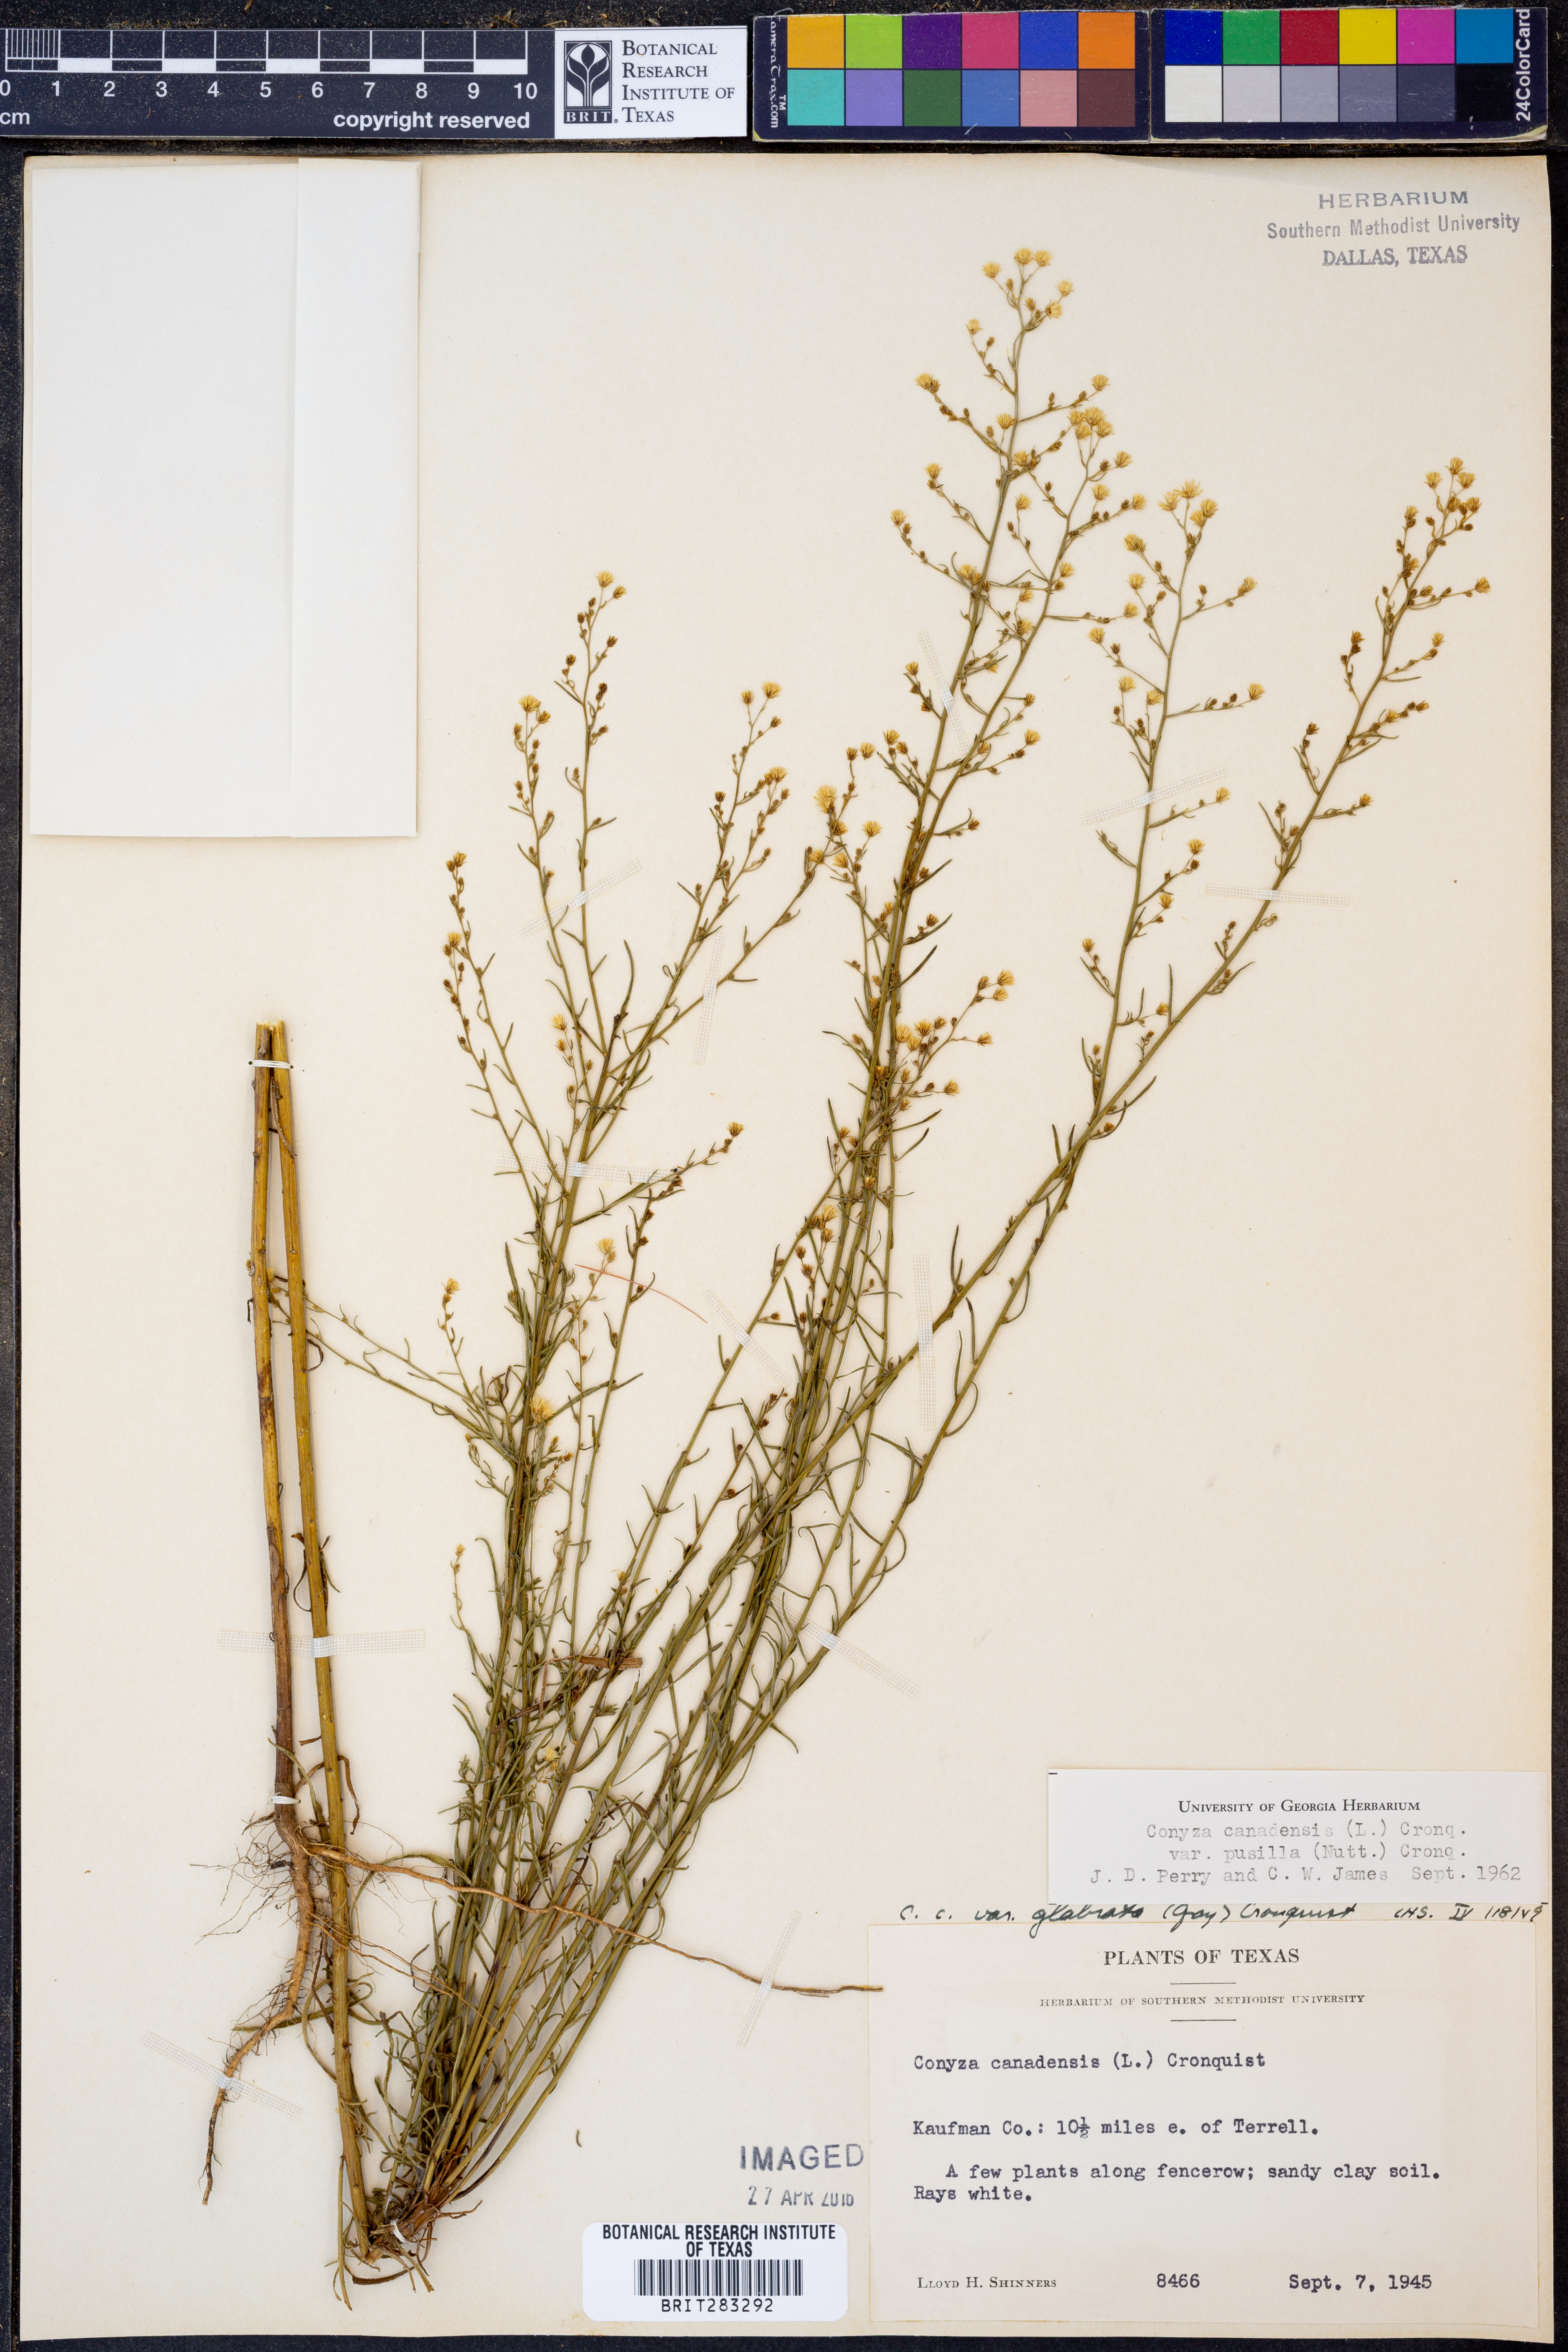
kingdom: Plantae
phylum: Tracheophyta
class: Magnoliopsida
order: Asterales
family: Asteraceae
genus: Erigeron
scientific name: Erigeron canadensis
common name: Canadian fleabane
